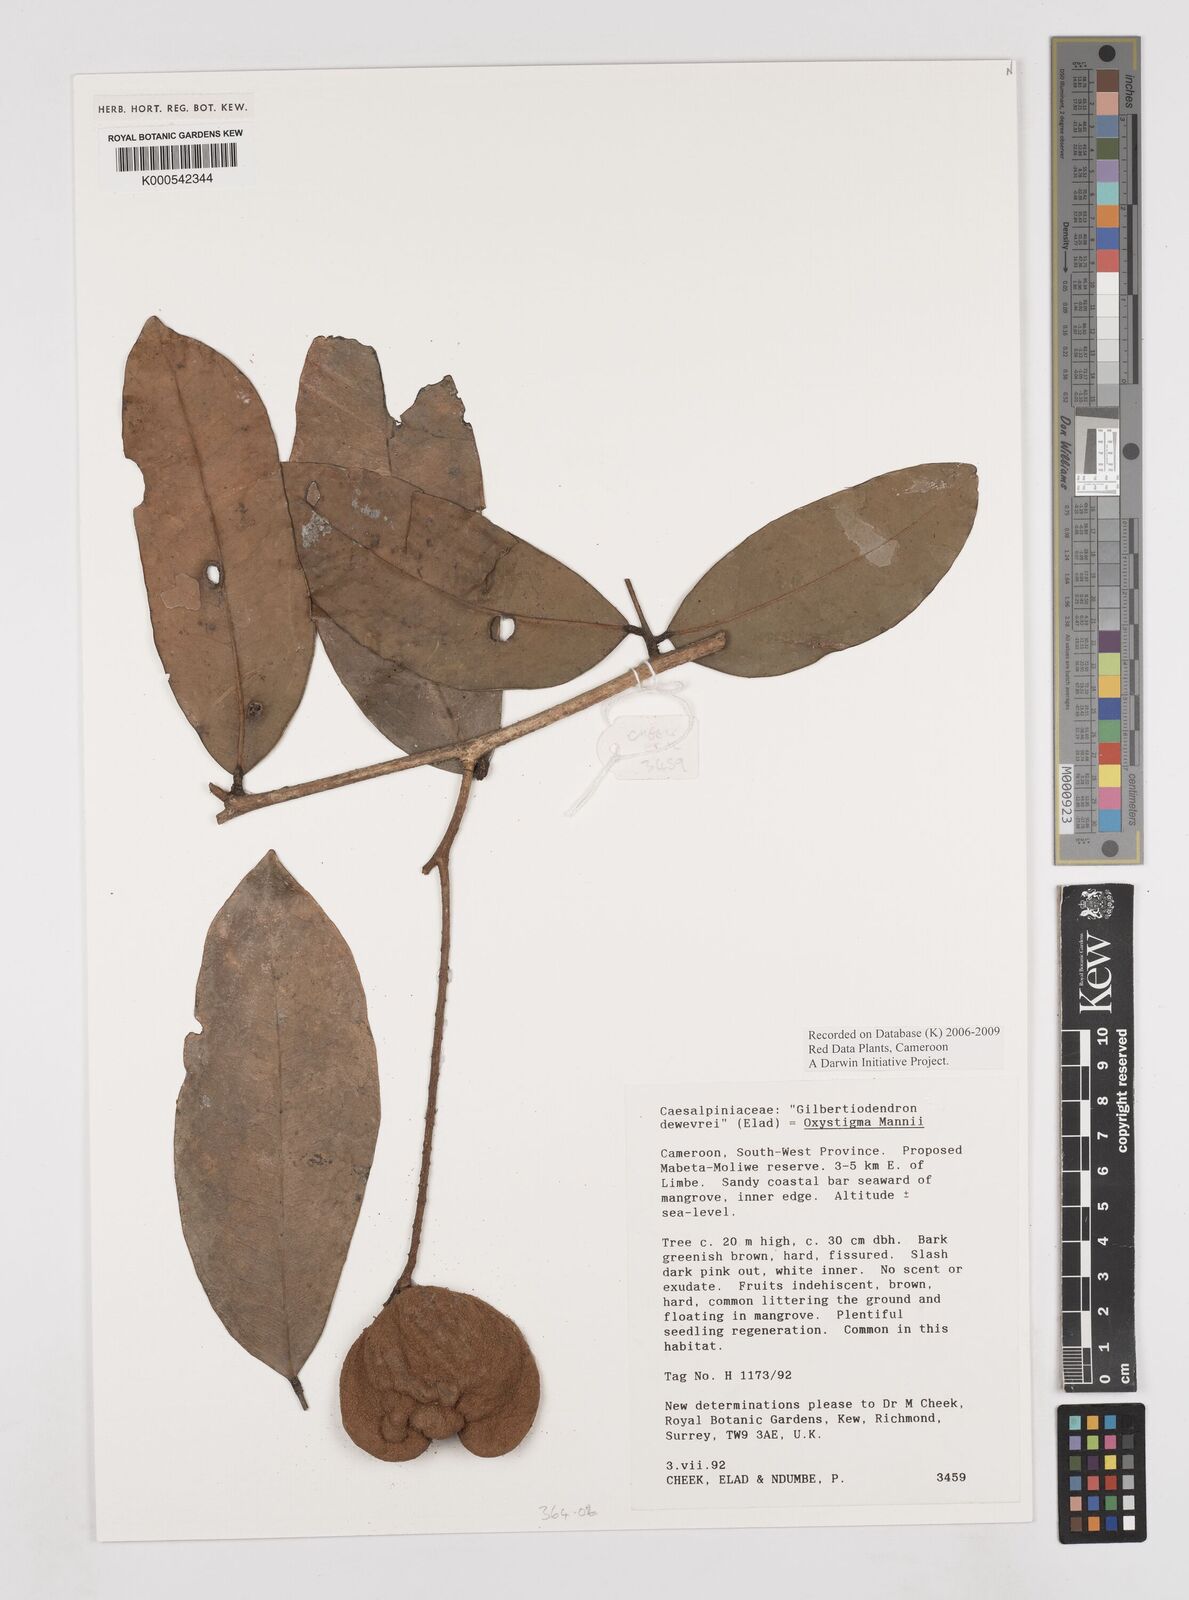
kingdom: Plantae
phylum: Tracheophyta
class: Magnoliopsida
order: Fabales
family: Fabaceae
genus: Prioria
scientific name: Prioria mannii
